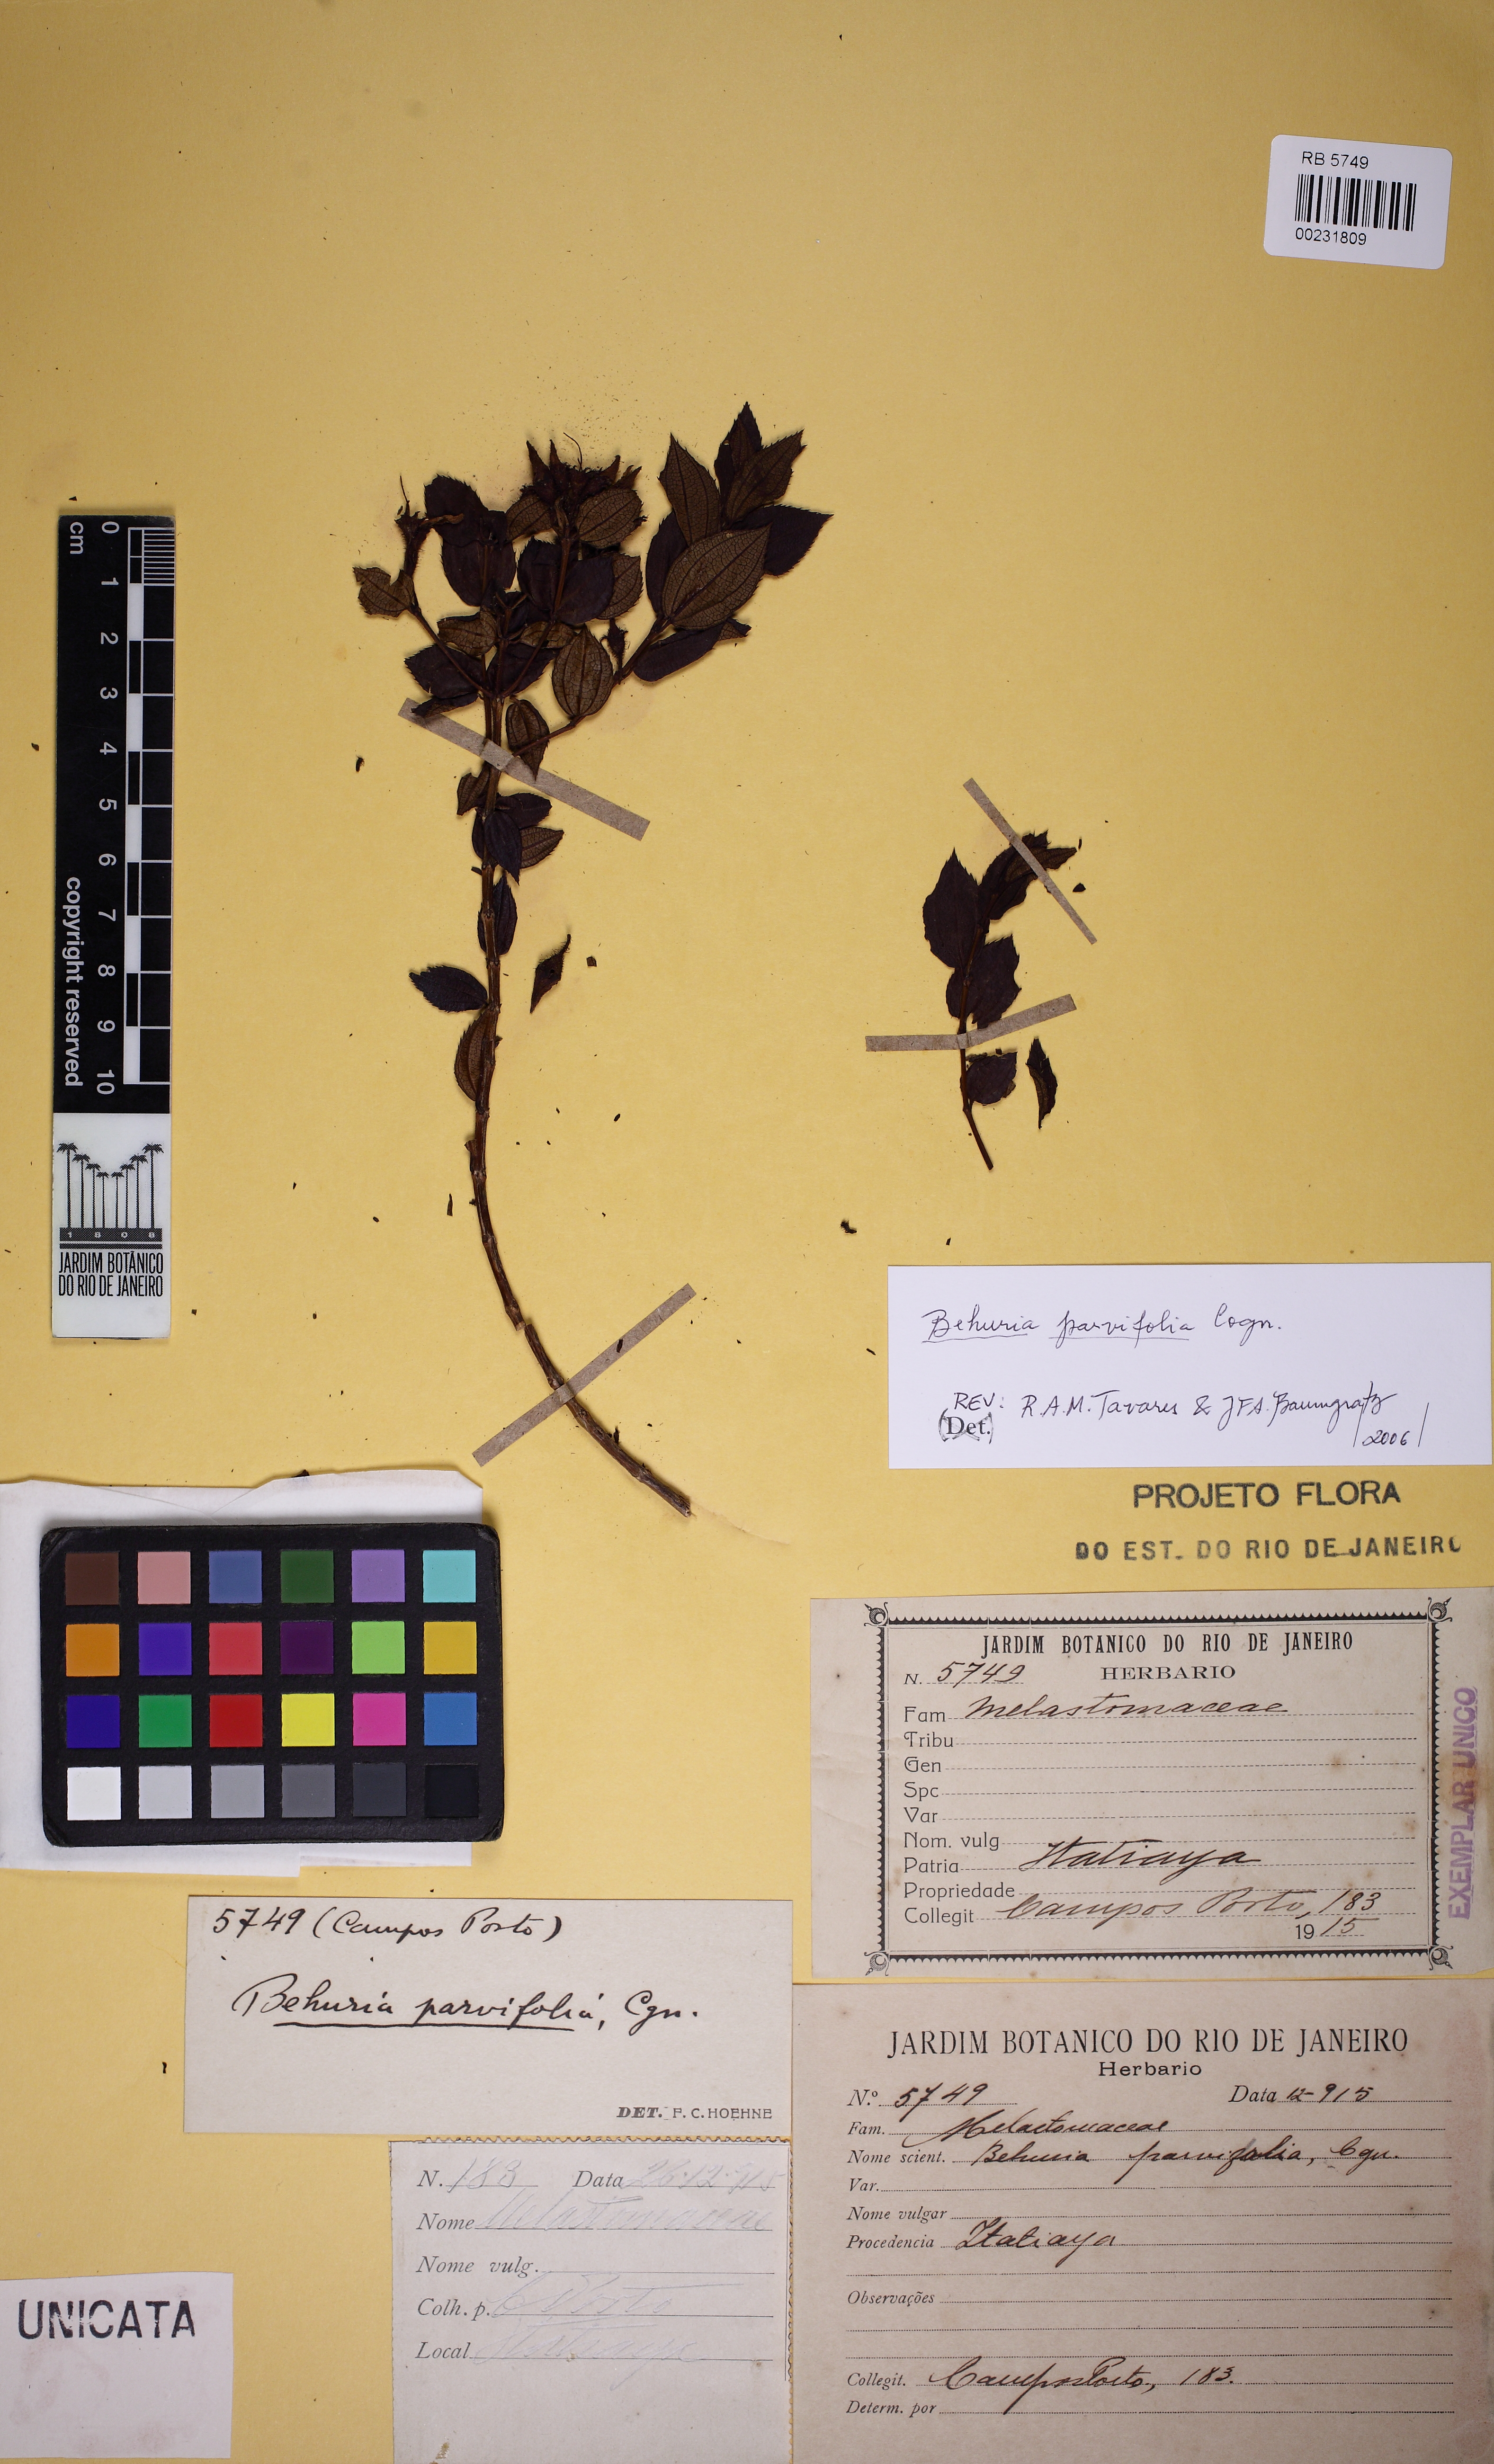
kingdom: Plantae
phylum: Tracheophyta
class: Magnoliopsida
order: Myrtales
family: Melastomataceae
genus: Huberia
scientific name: Huberia minutifolia
